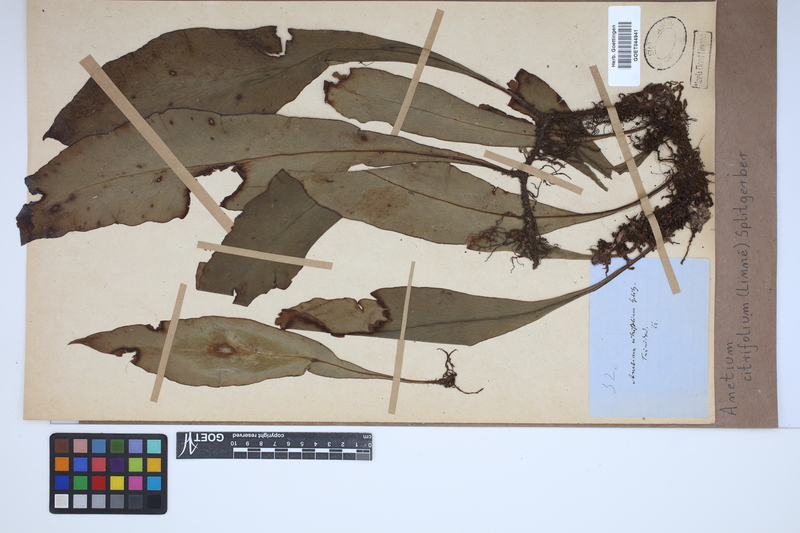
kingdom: Plantae
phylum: Tracheophyta
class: Polypodiopsida
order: Polypodiales
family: Pteridaceae
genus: Polytaenium
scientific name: Polytaenium citrifolium
